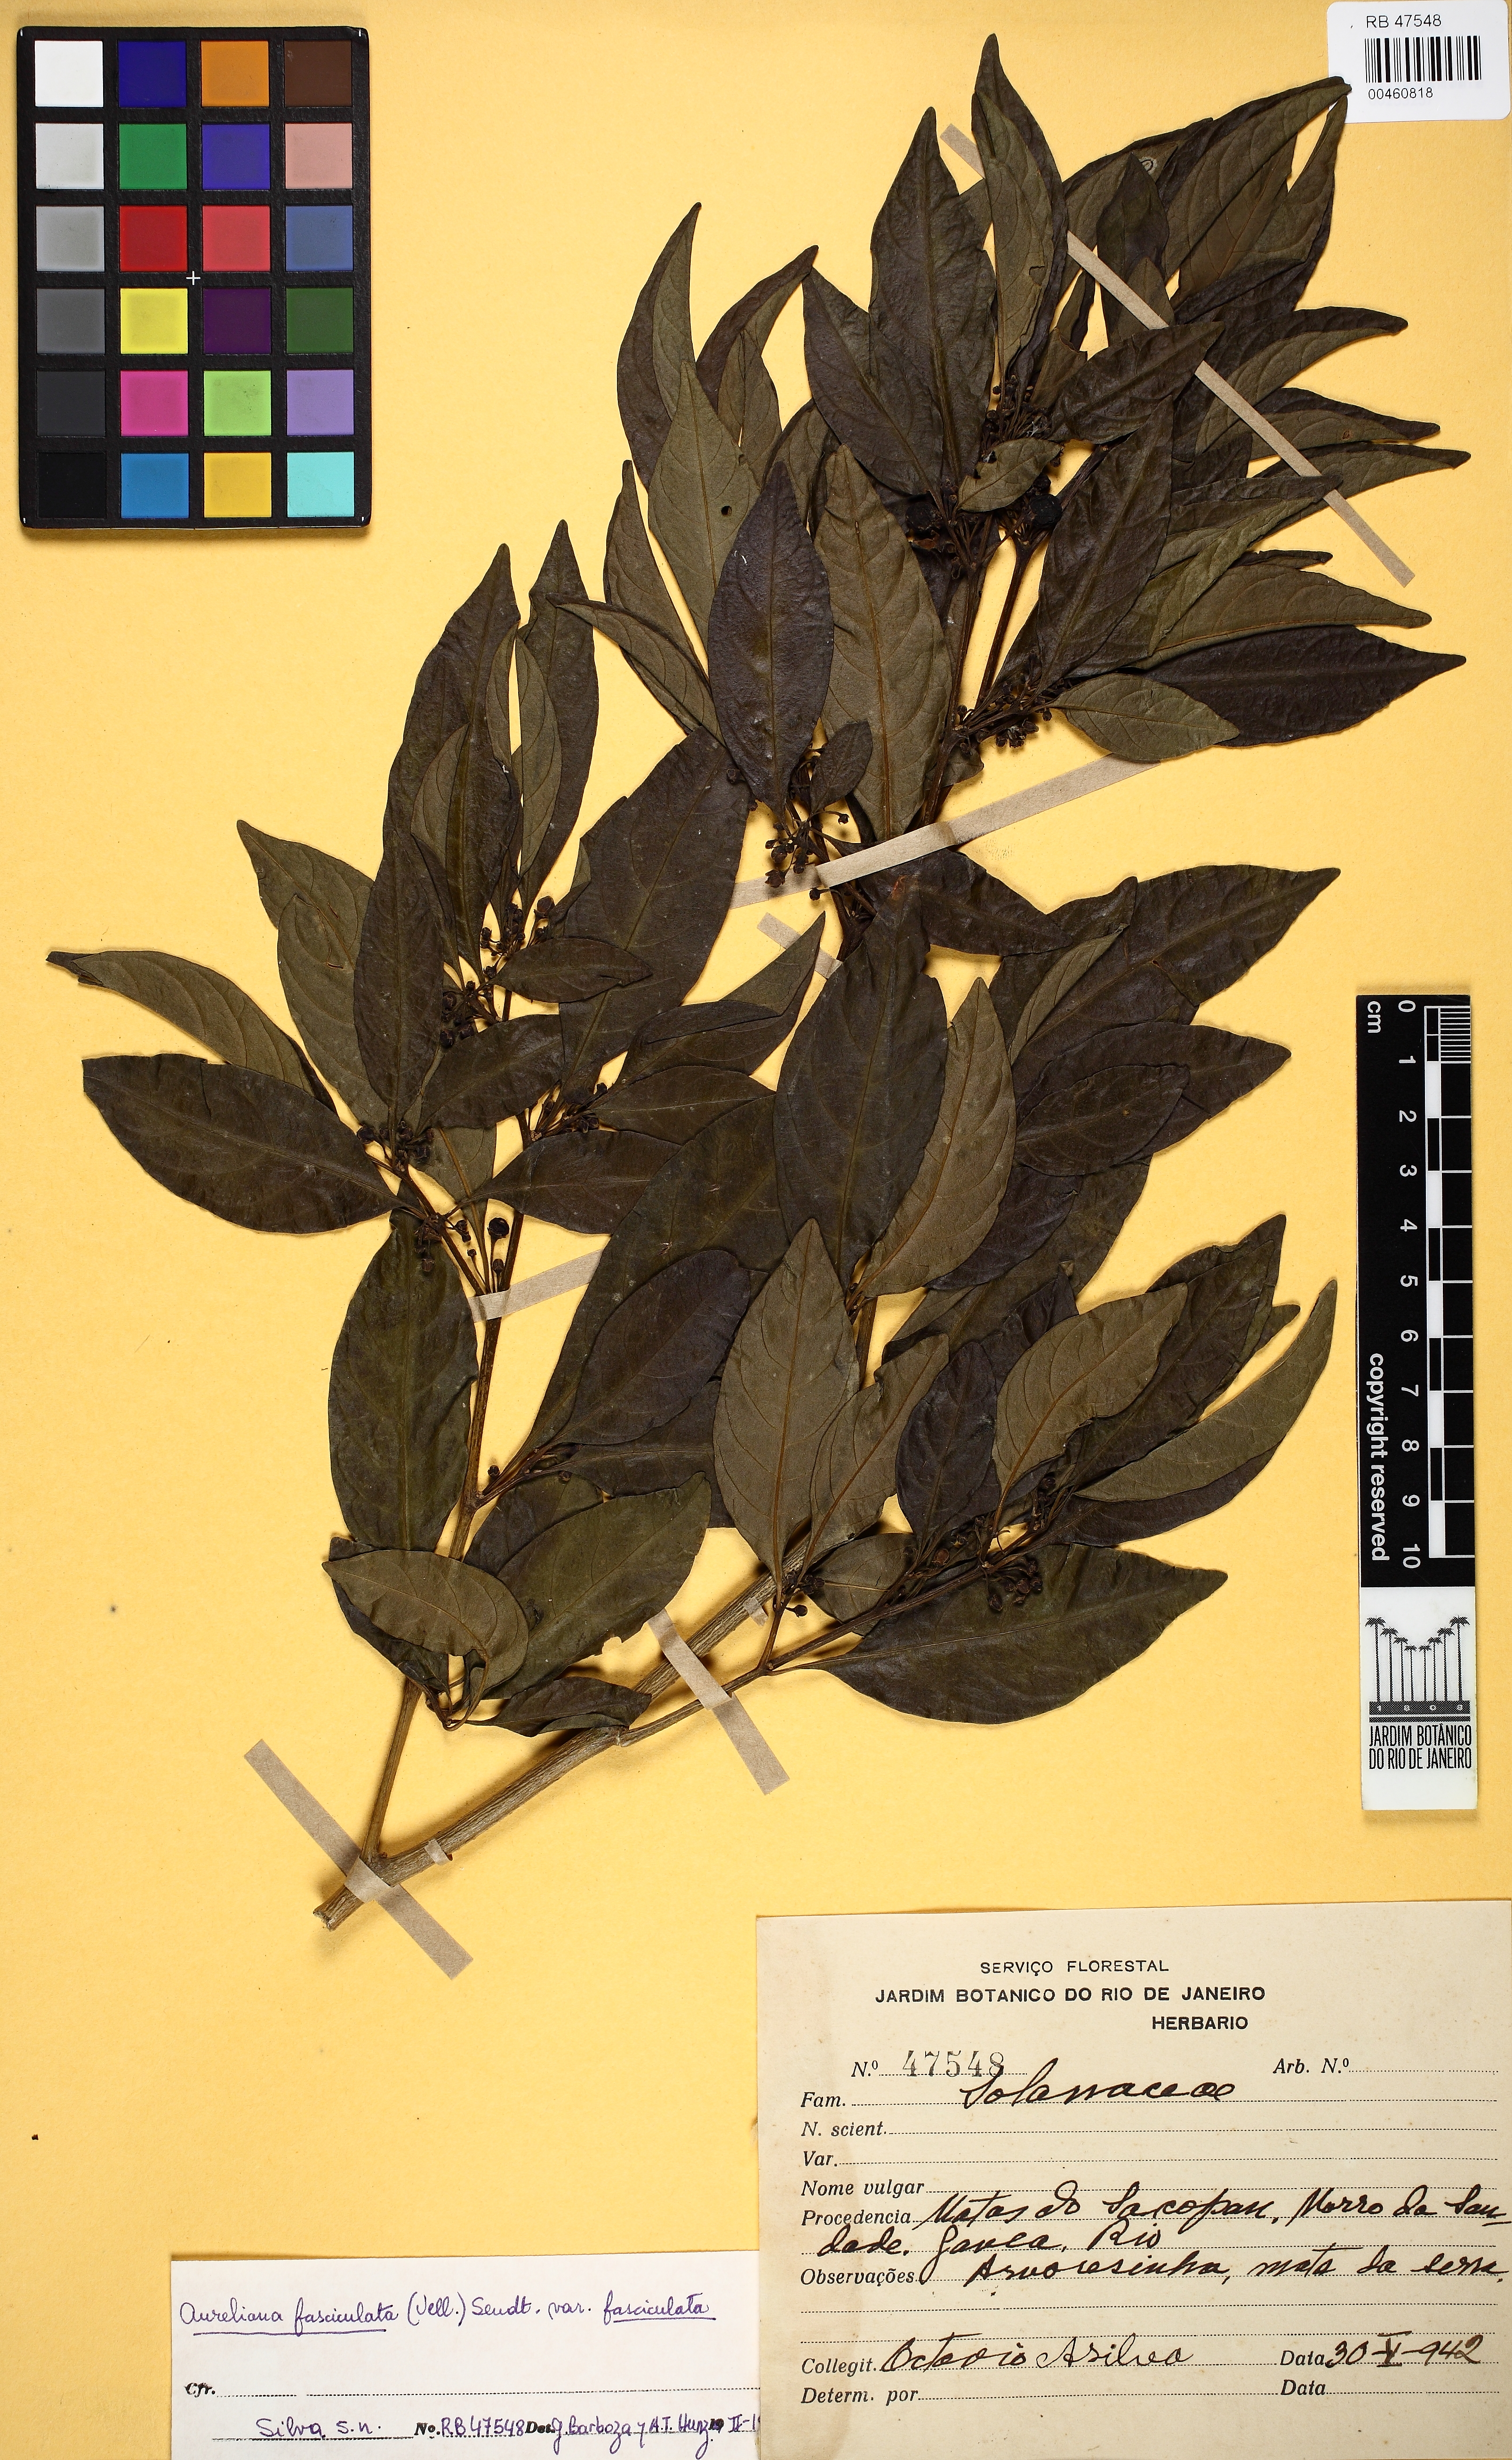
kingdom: Plantae
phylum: Tracheophyta
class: Magnoliopsida
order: Solanales
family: Solanaceae
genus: Athenaea
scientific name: Athenaea fasciculata
